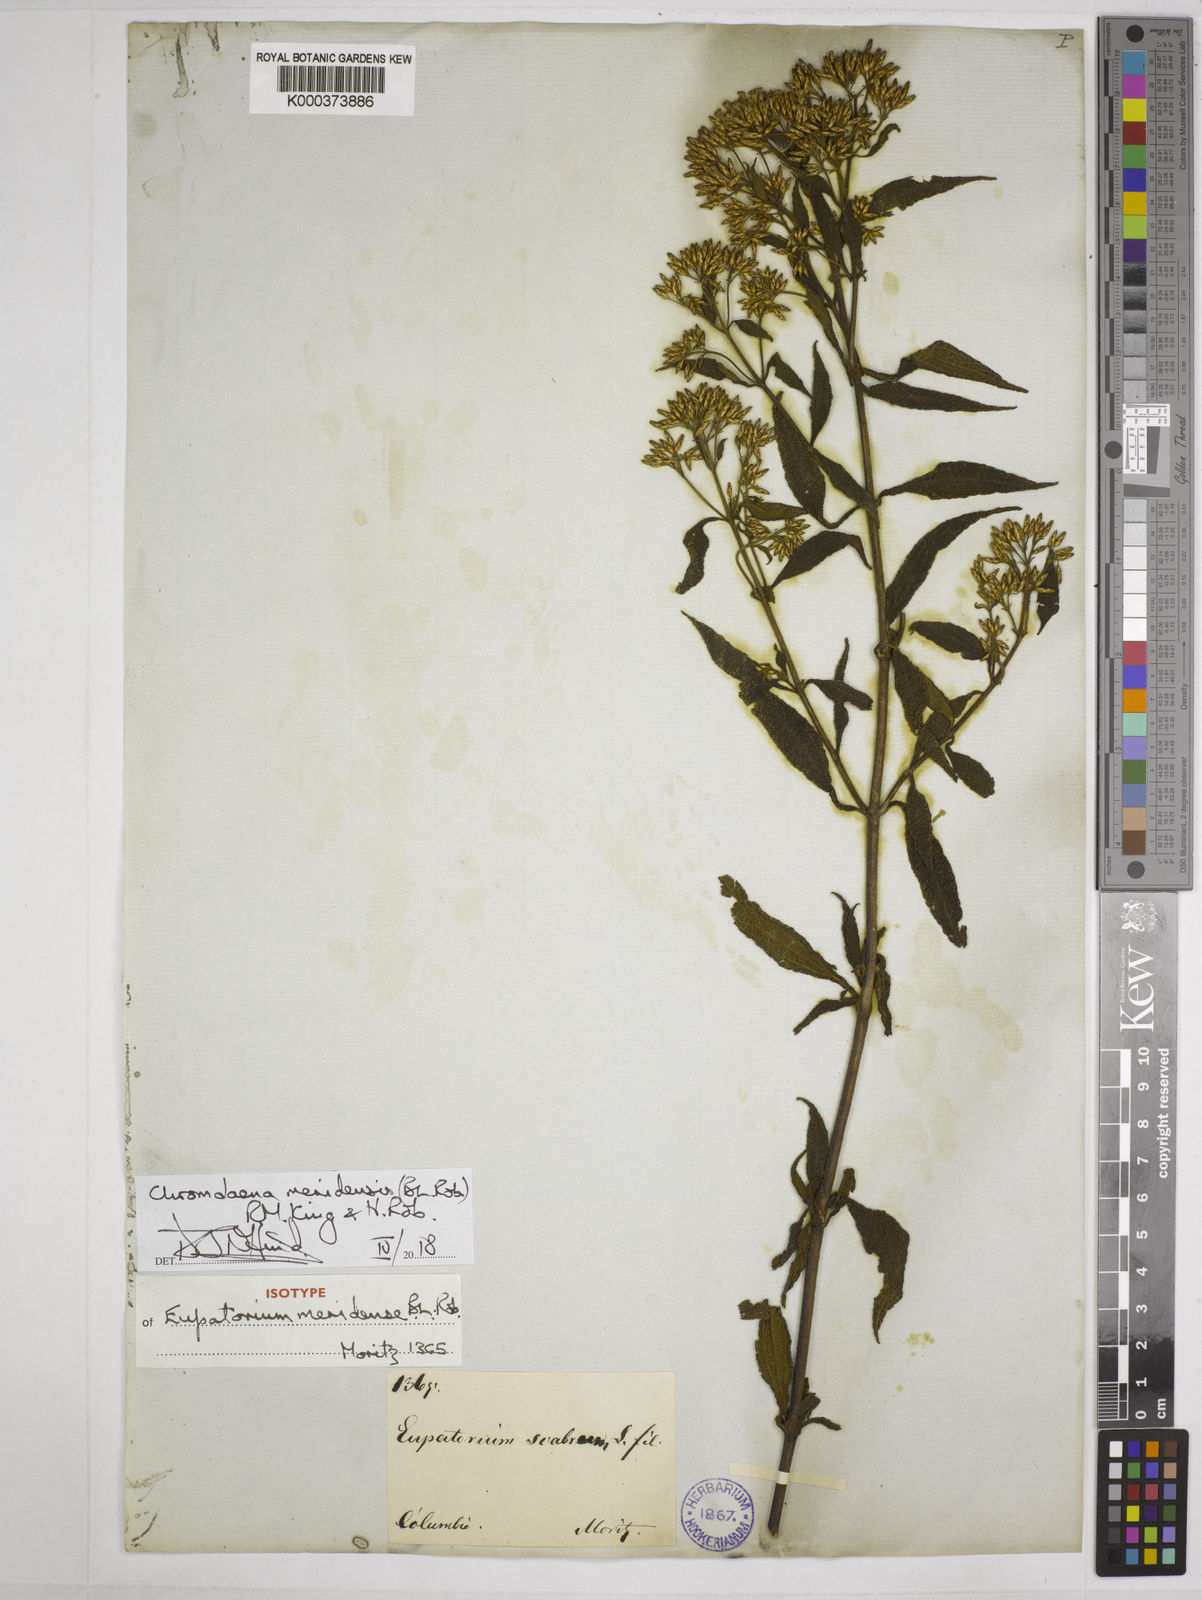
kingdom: Plantae
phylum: Tracheophyta
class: Magnoliopsida
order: Asterales
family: Asteraceae
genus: Chromolaena
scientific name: Chromolaena
